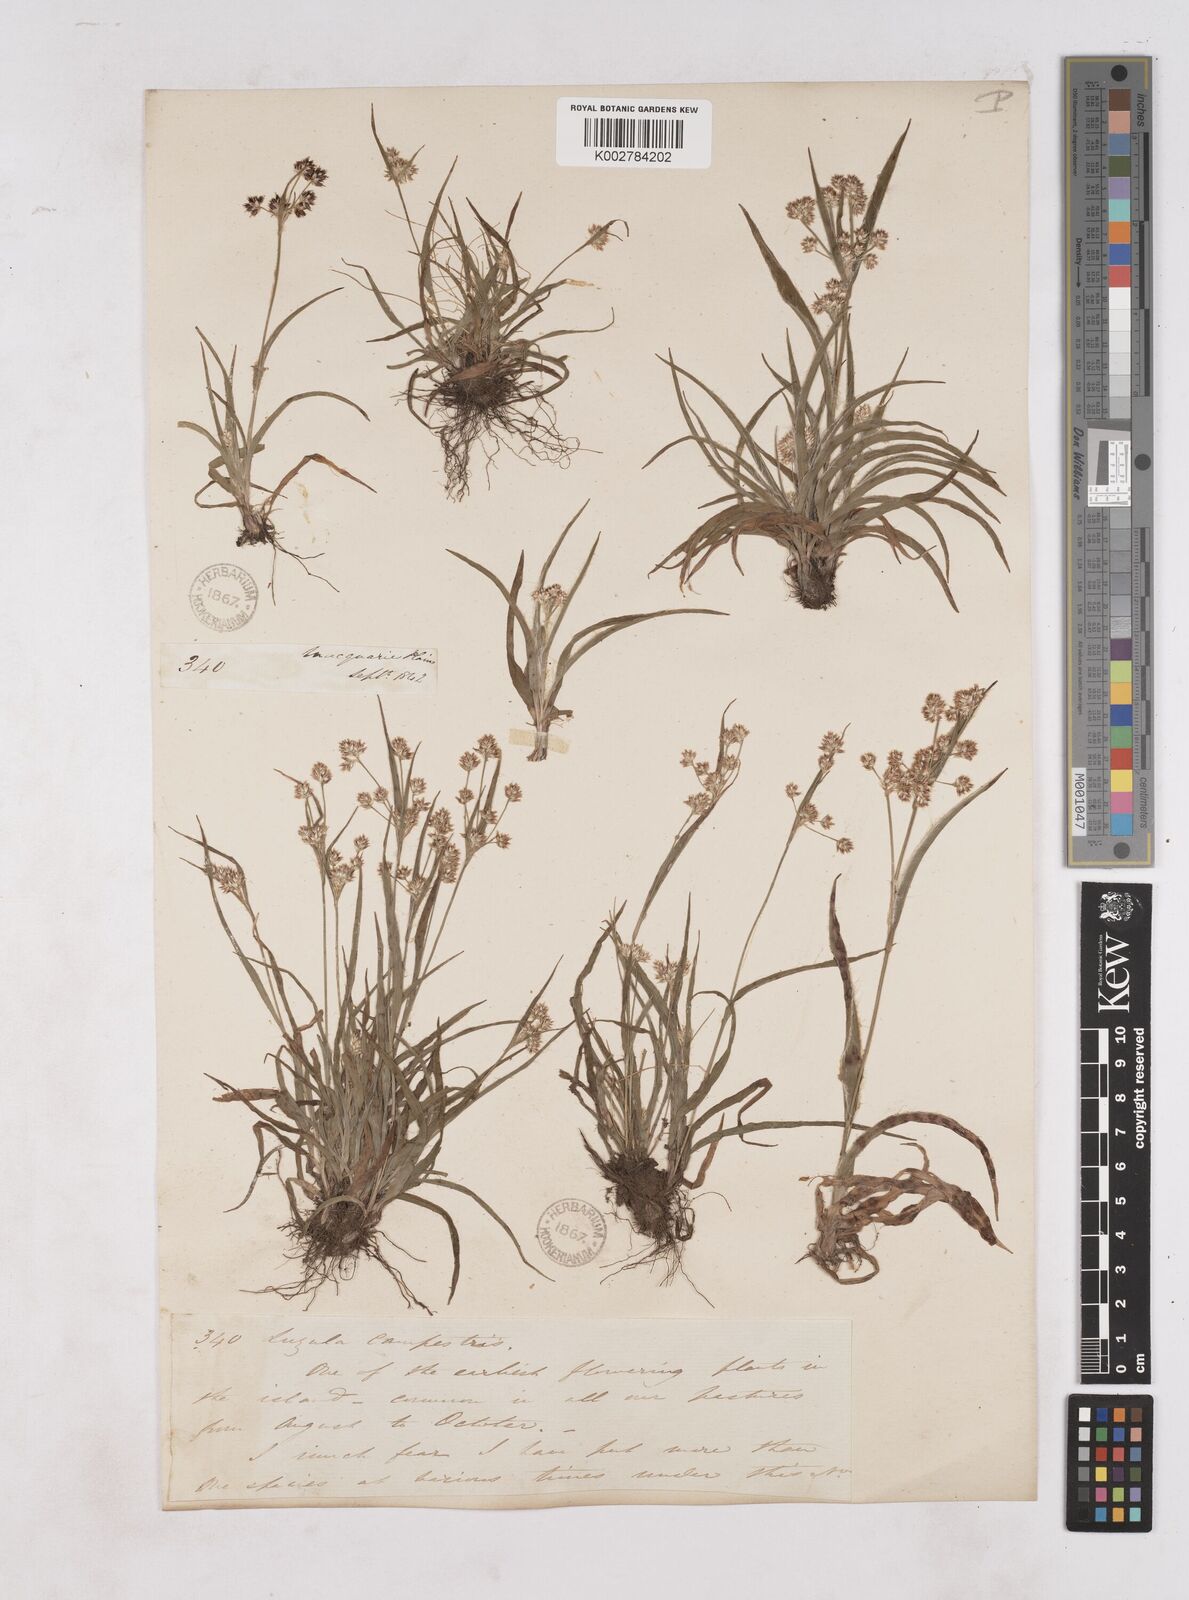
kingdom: Plantae
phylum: Tracheophyta
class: Liliopsida
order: Poales
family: Juncaceae
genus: Luzula
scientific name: Luzula campestris
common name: Field wood-rush
